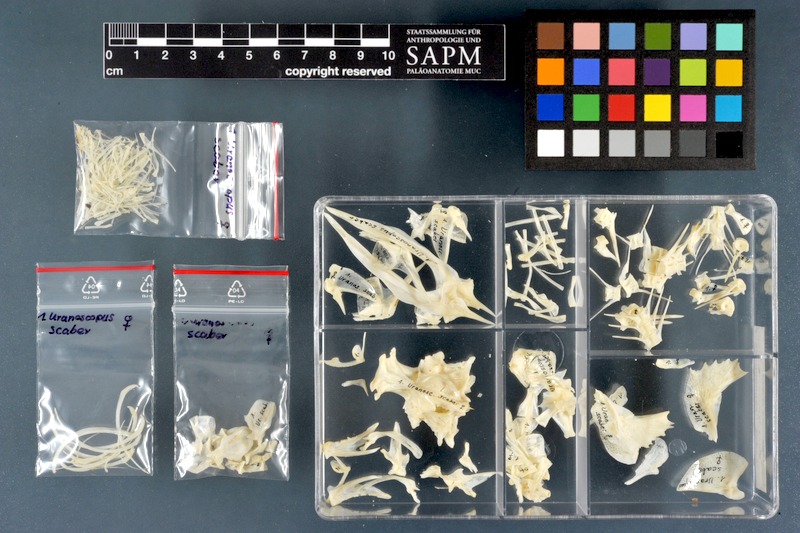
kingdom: Animalia
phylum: Chordata
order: Perciformes
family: Uranoscopidae
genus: Uranoscopus
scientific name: Uranoscopus scaber
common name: Stargazer
